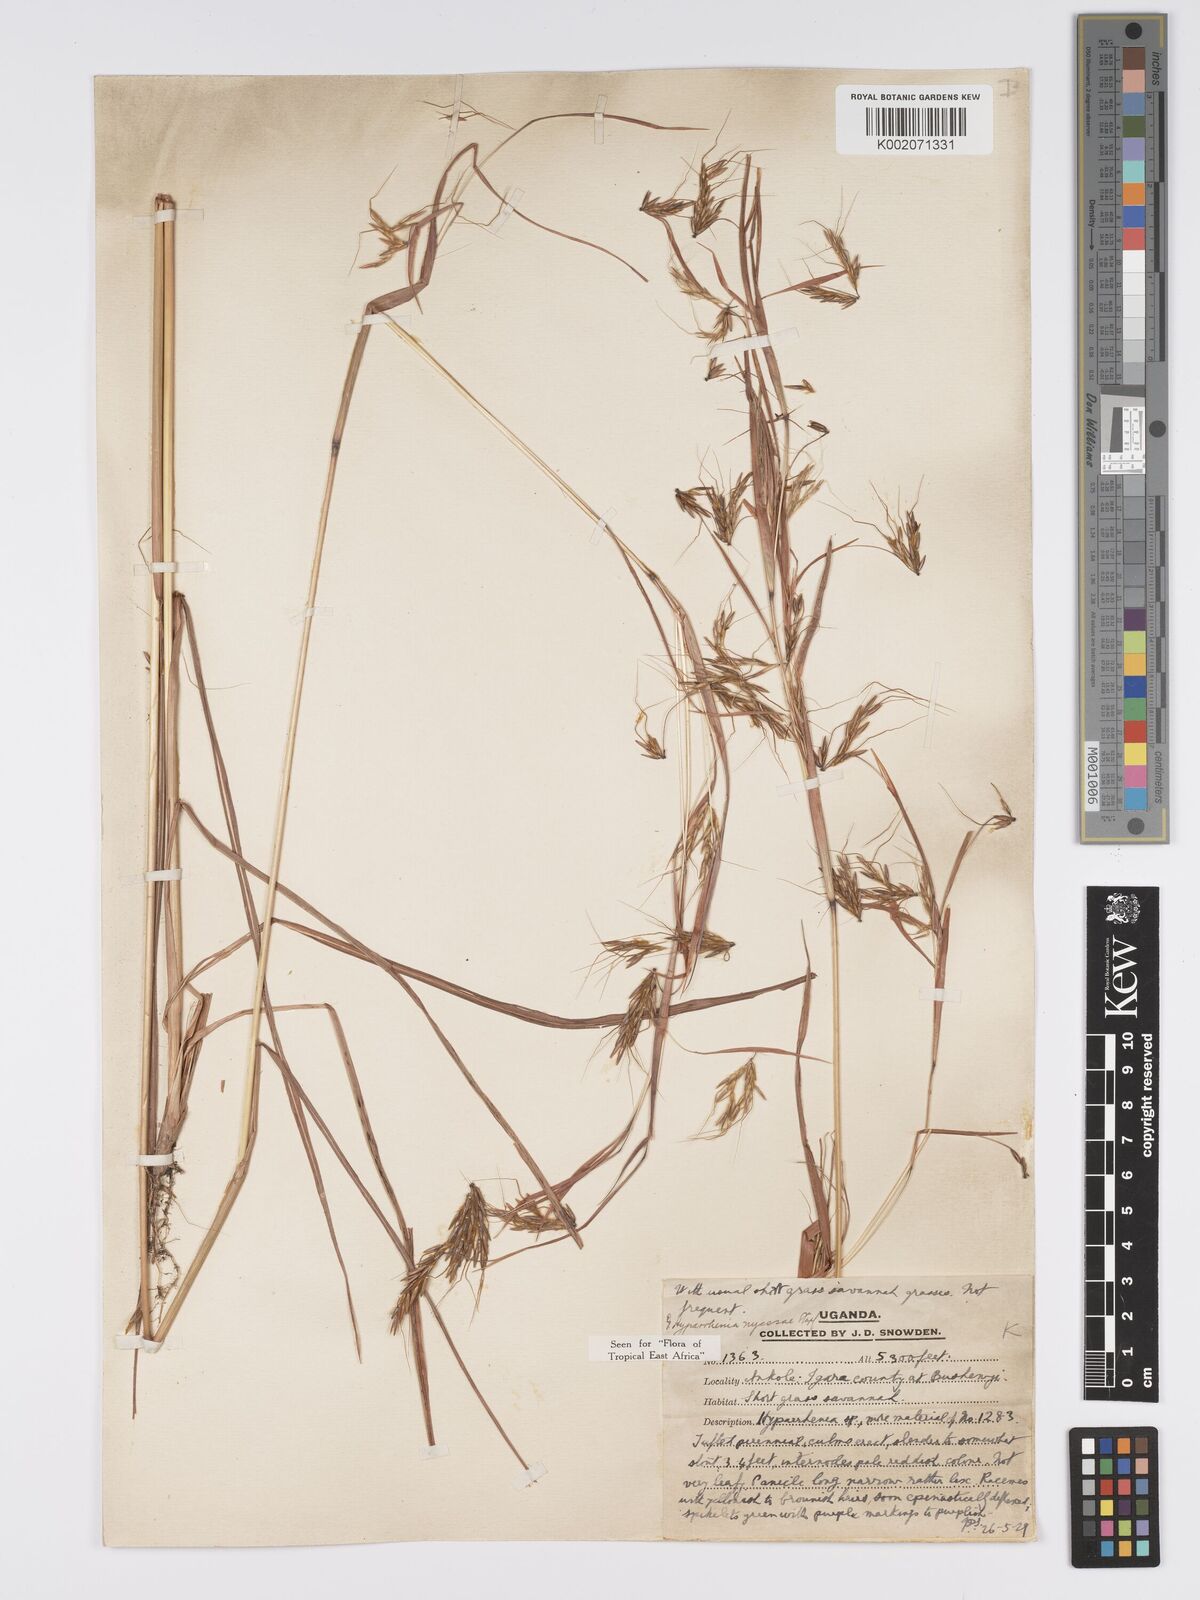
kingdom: Plantae
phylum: Tracheophyta
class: Liliopsida
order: Poales
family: Poaceae
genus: Hyparrhenia
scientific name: Hyparrhenia nyassae
